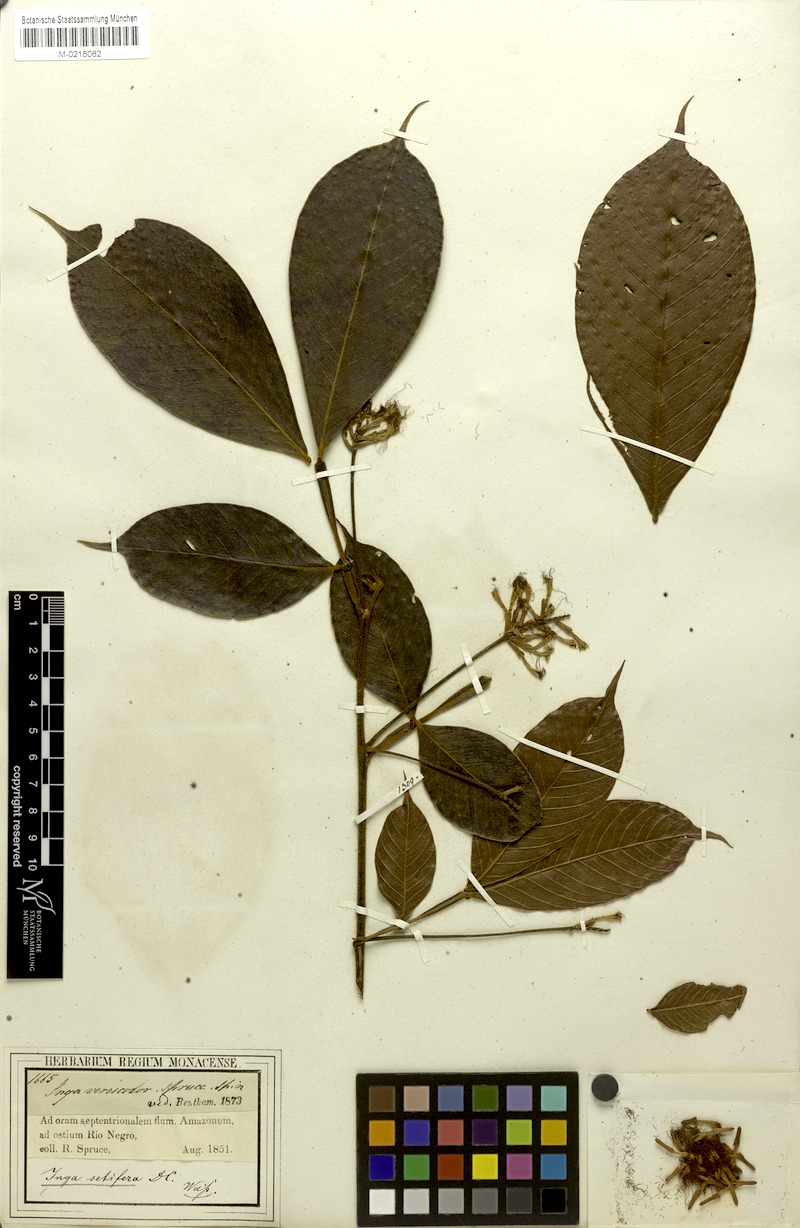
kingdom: Plantae
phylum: Tracheophyta
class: Magnoliopsida
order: Fabales
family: Fabaceae
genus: Inga
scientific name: Inga pilosula
